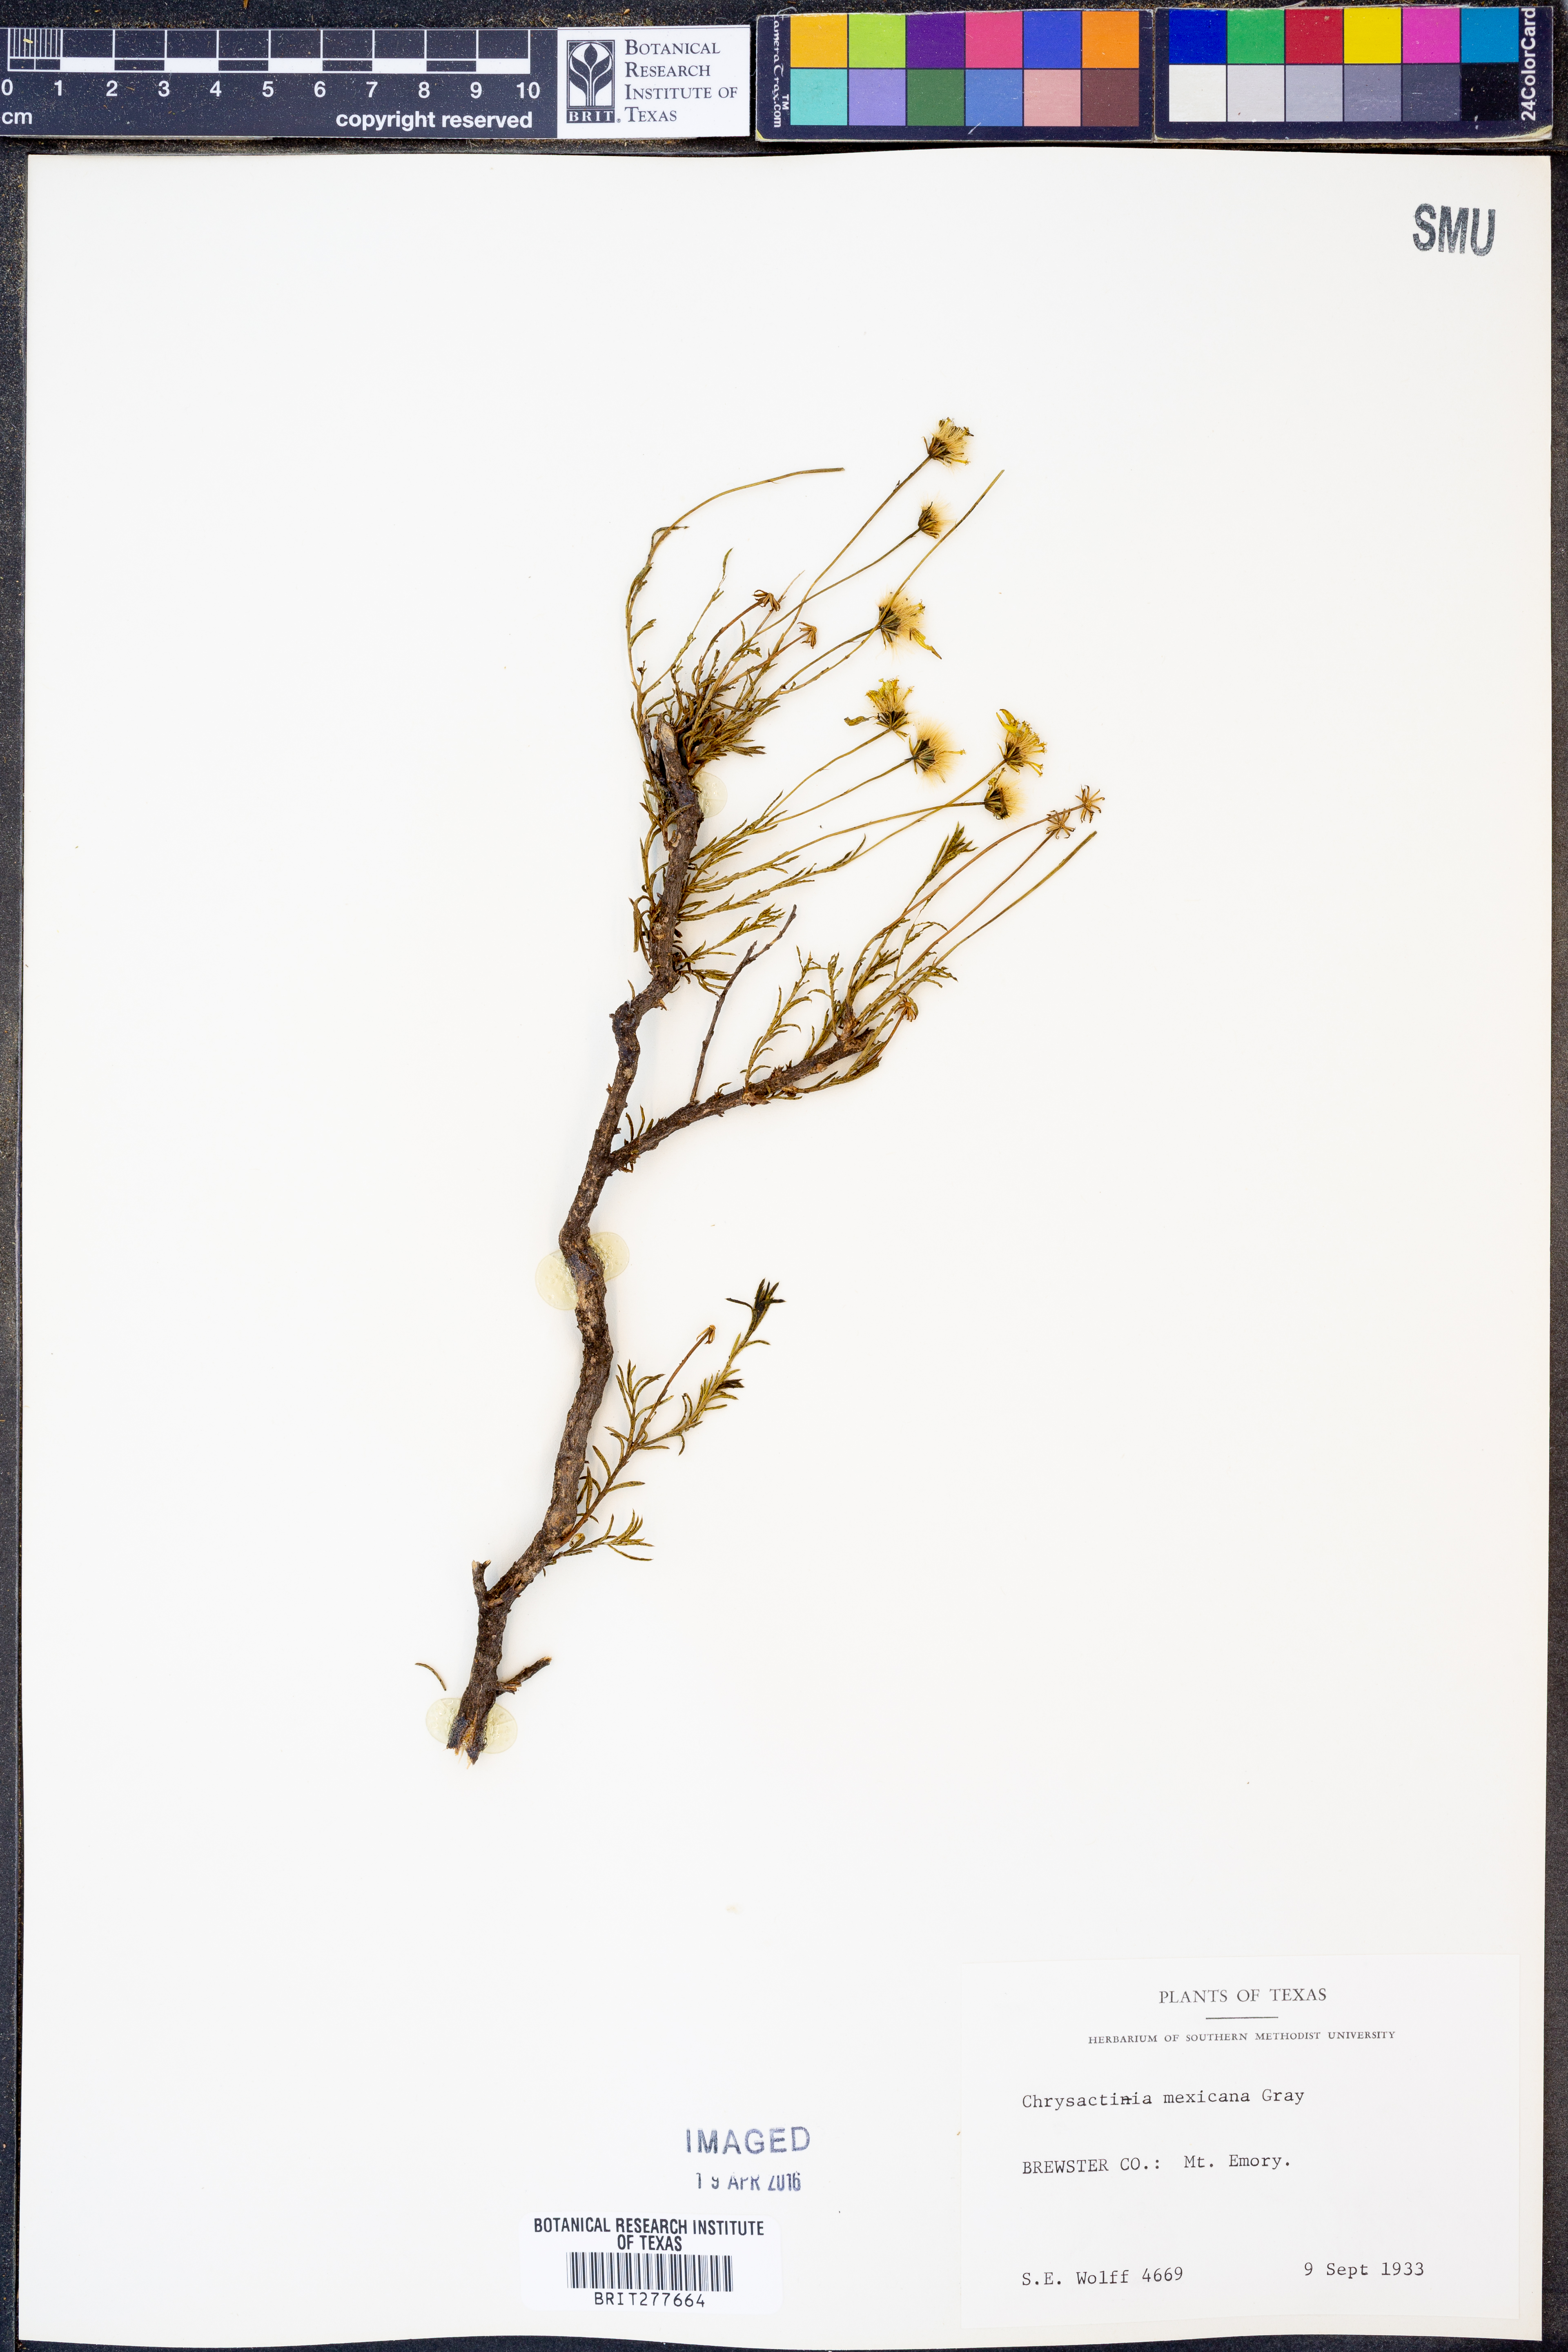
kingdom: Plantae
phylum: Tracheophyta
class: Magnoliopsida
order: Asterales
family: Asteraceae
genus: Chrysactinia
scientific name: Chrysactinia mexicana
